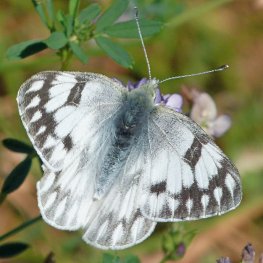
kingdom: Animalia
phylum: Arthropoda
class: Insecta
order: Lepidoptera
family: Pieridae
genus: Pontia
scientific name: Pontia protodice
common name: Checkered White
